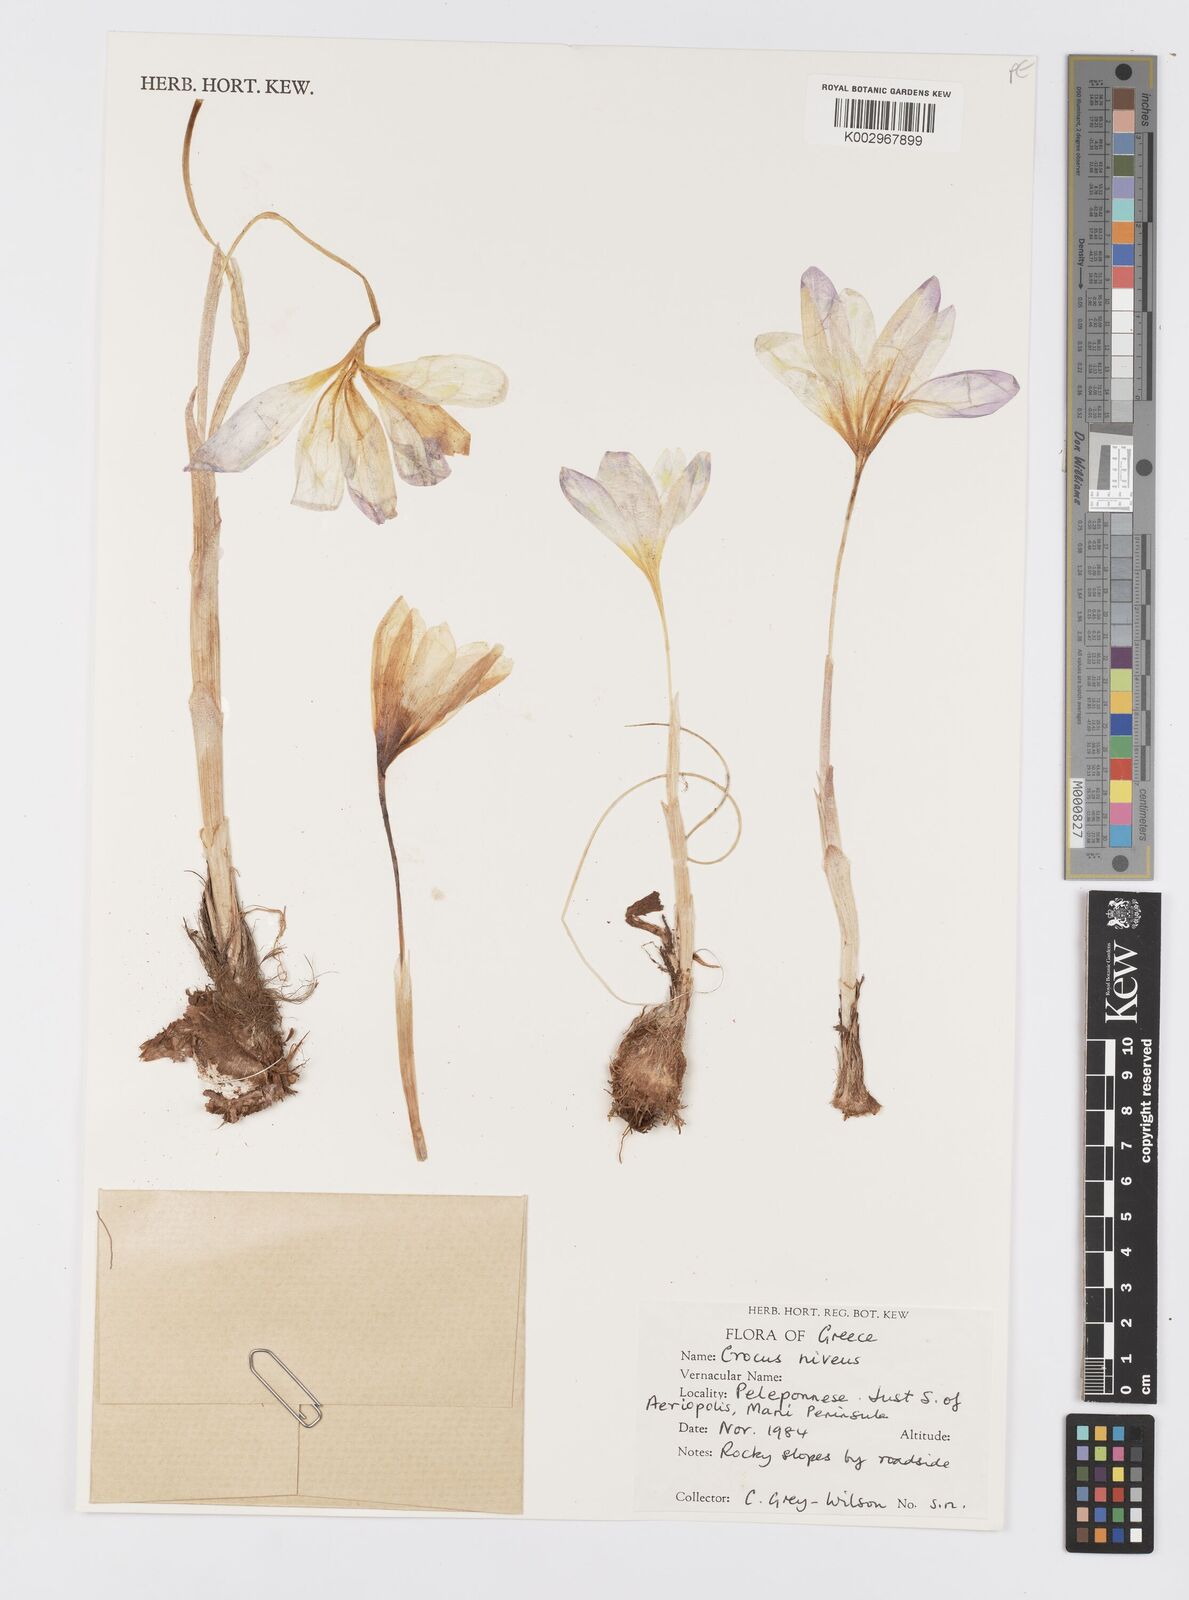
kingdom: Plantae
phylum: Tracheophyta
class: Liliopsida
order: Asparagales
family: Iridaceae
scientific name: Iridaceae
